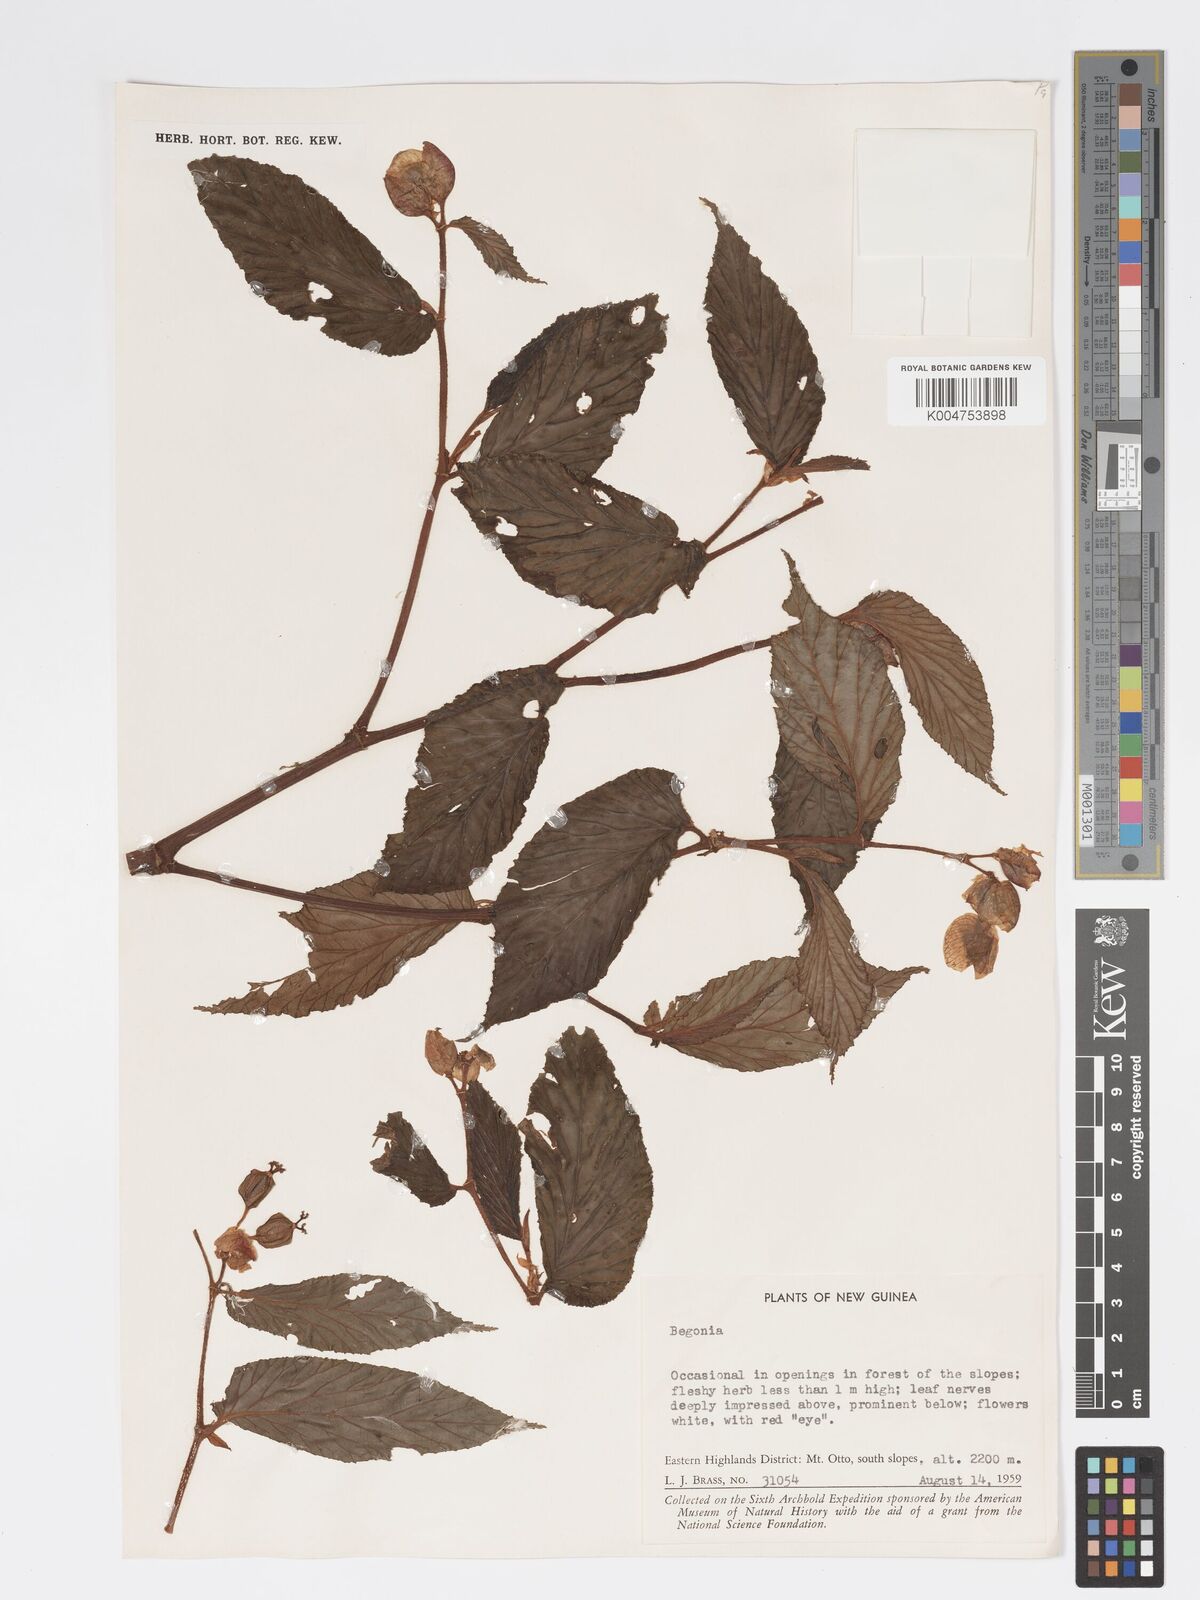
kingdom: Plantae
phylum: Tracheophyta
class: Magnoliopsida
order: Cucurbitales
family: Begoniaceae
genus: Begonia
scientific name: Begonia
